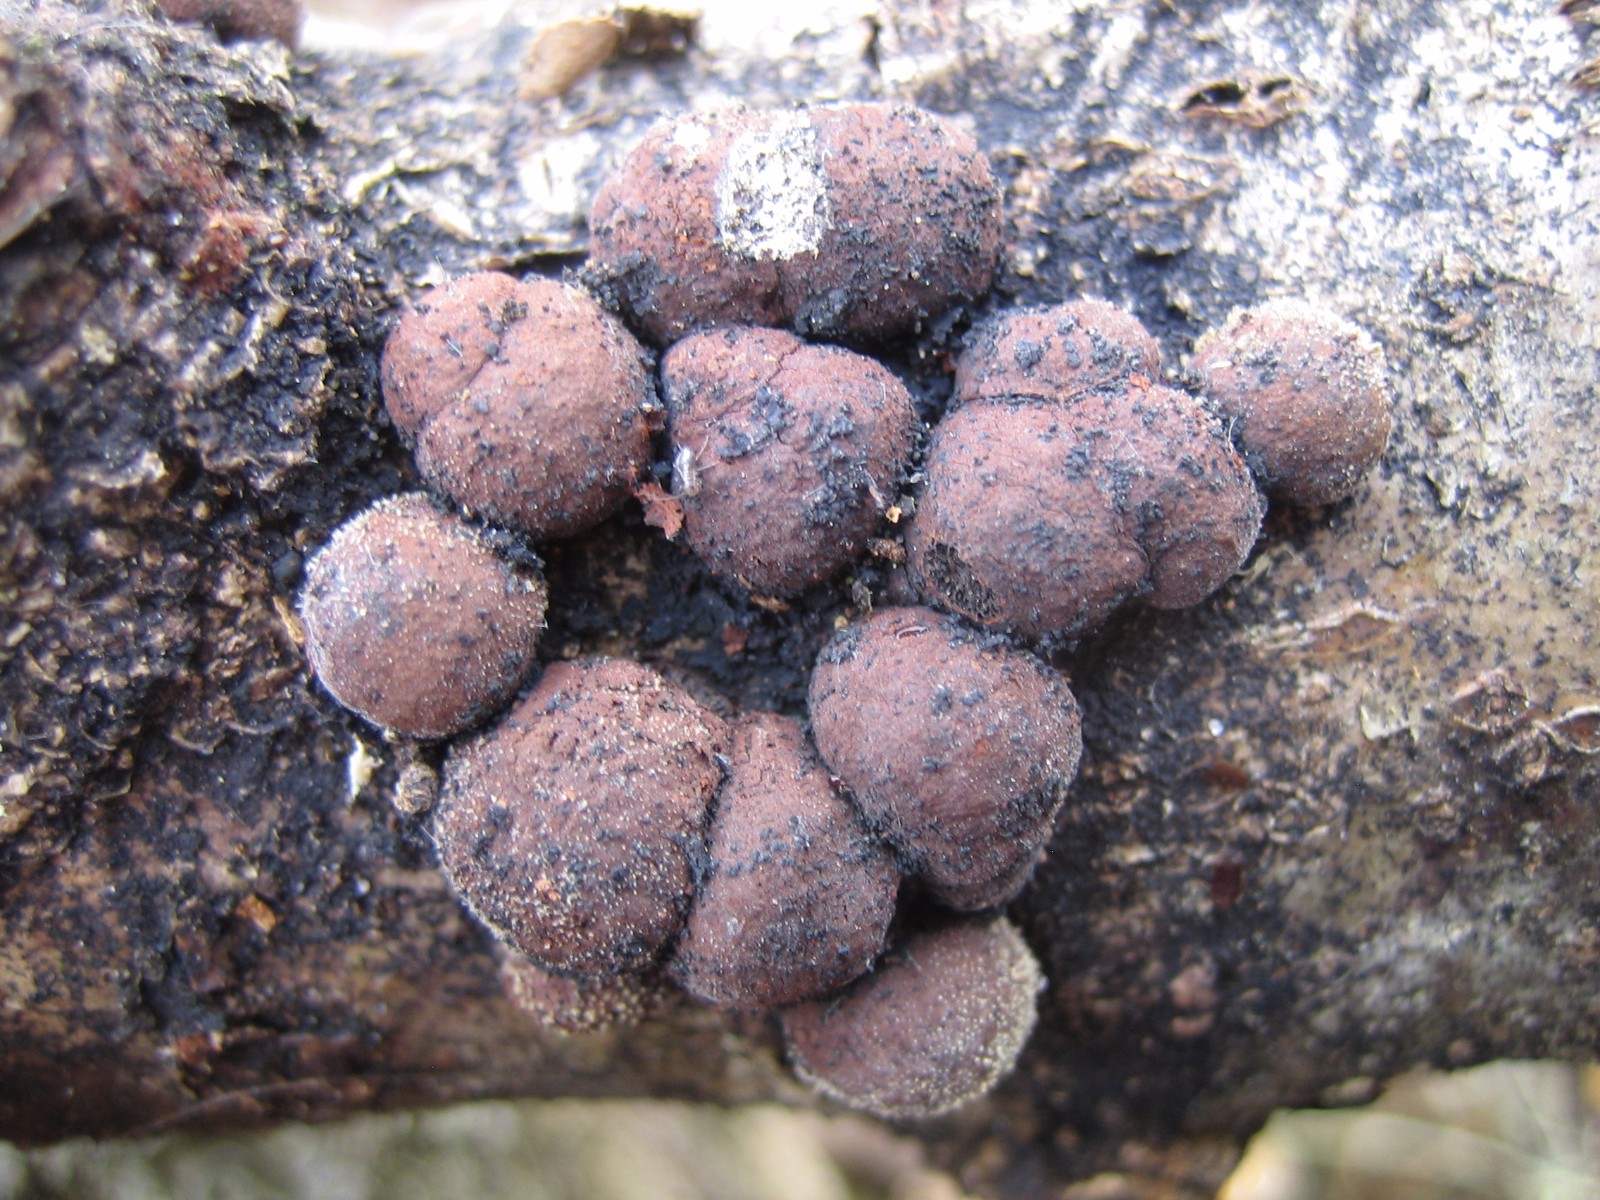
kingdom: Fungi
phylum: Ascomycota
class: Sordariomycetes
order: Xylariales
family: Hypoxylaceae
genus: Hypoxylon
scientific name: Hypoxylon howeanum
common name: halvkugleformet kulbær
